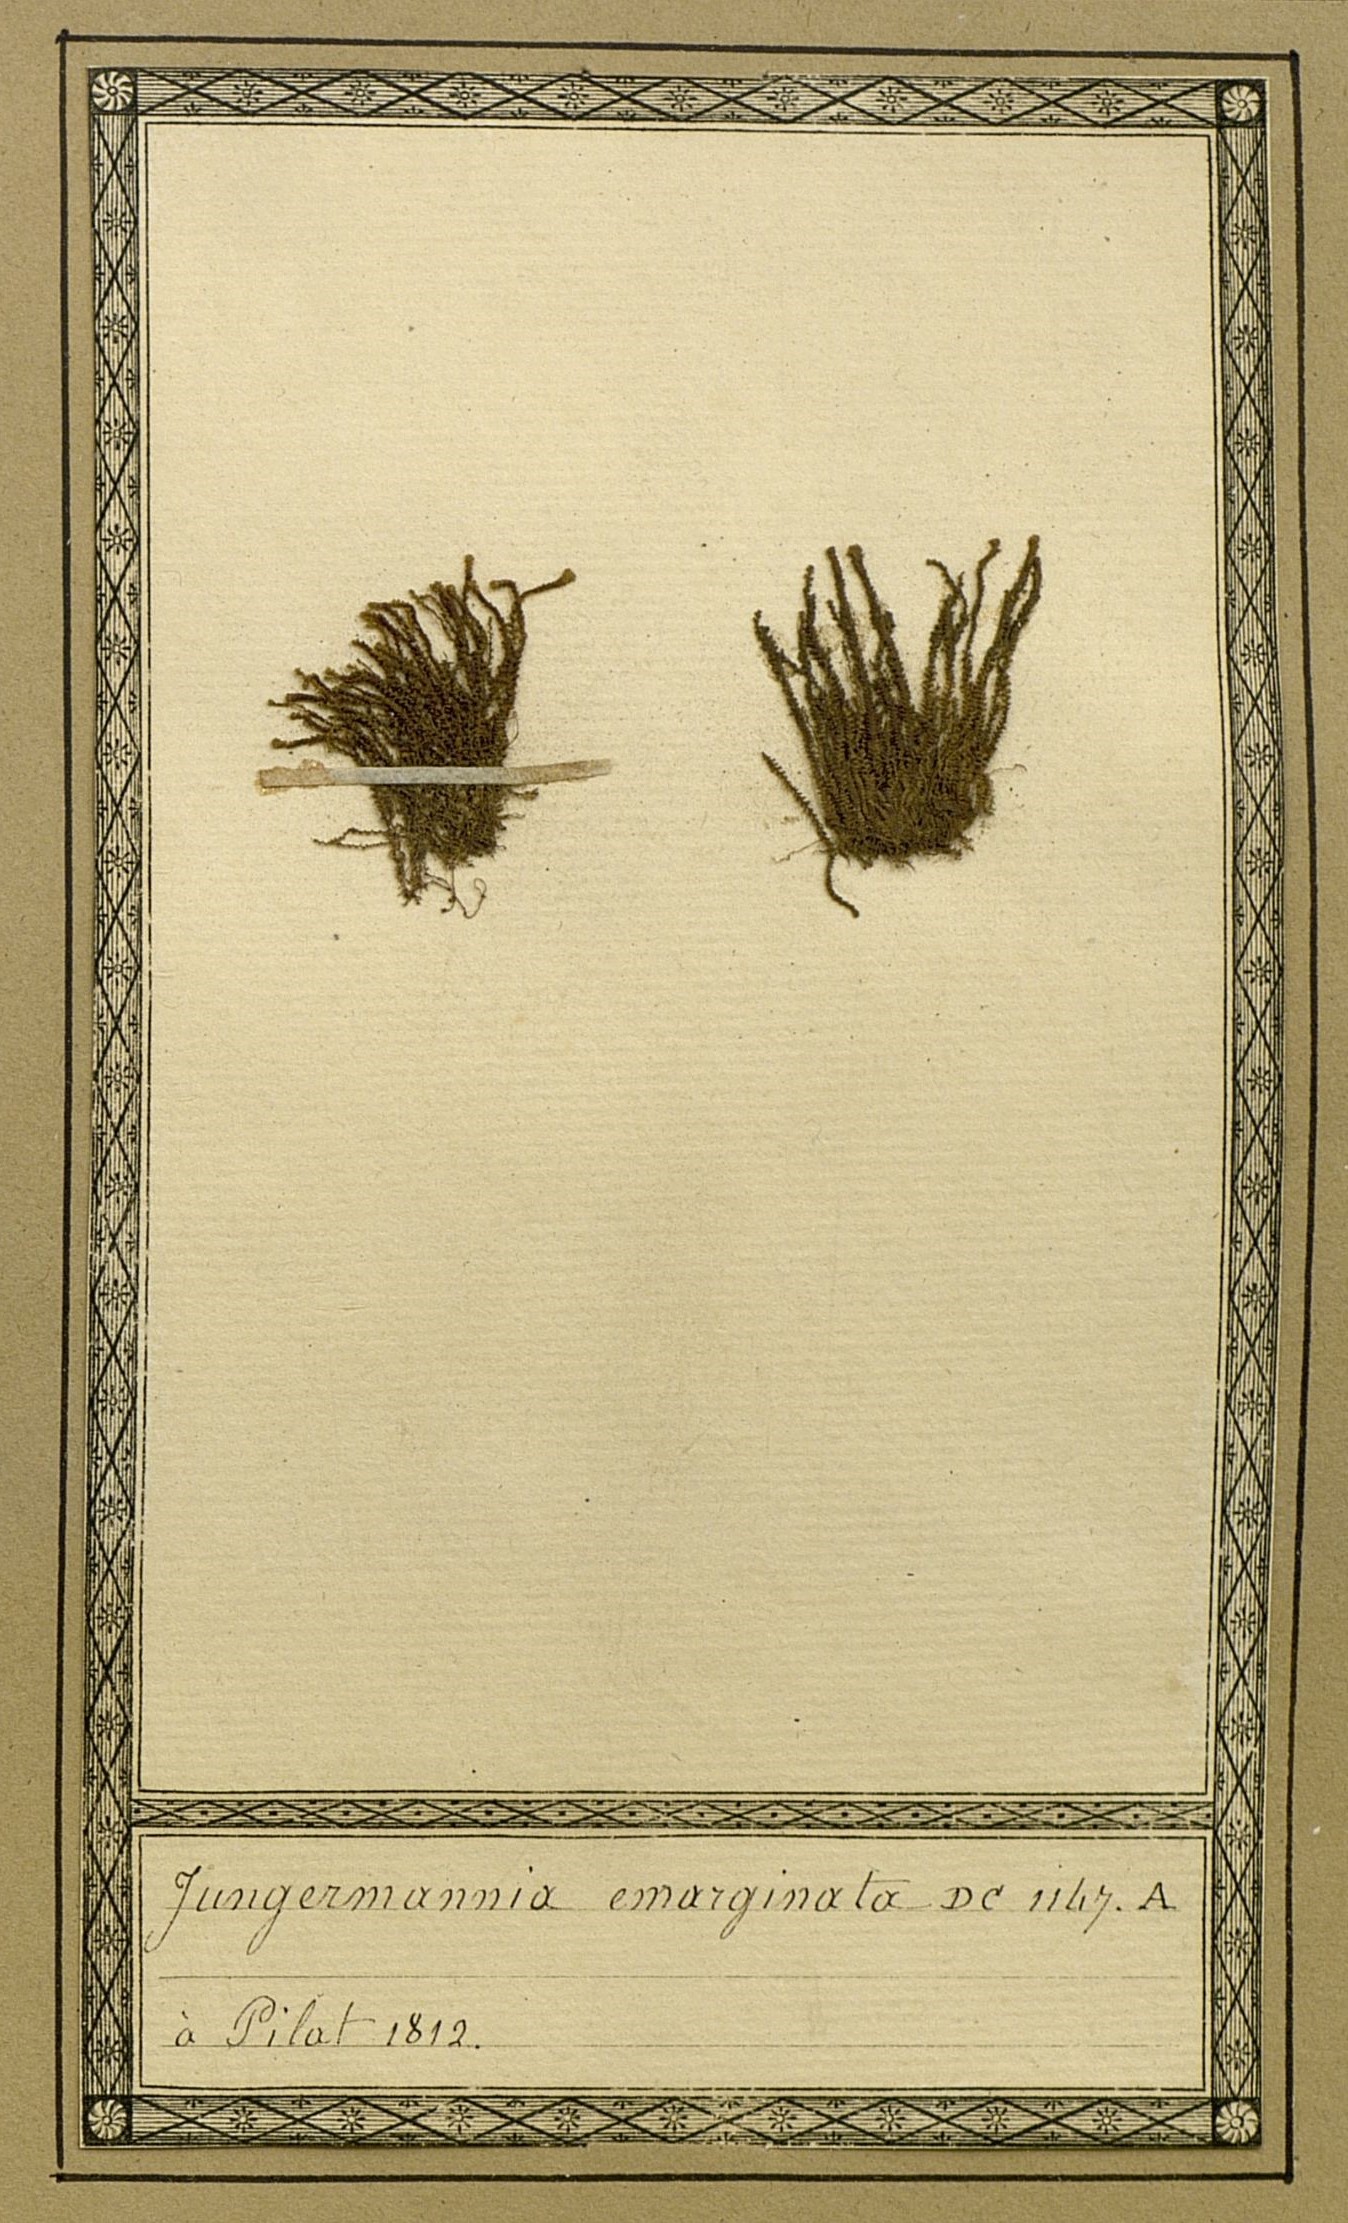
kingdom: Plantae
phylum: Marchantiophyta
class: Jungermanniopsida
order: Jungermanniales
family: Gymnomitriaceae
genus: Marsupella
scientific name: Marsupella emarginata
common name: Notched rustwort
